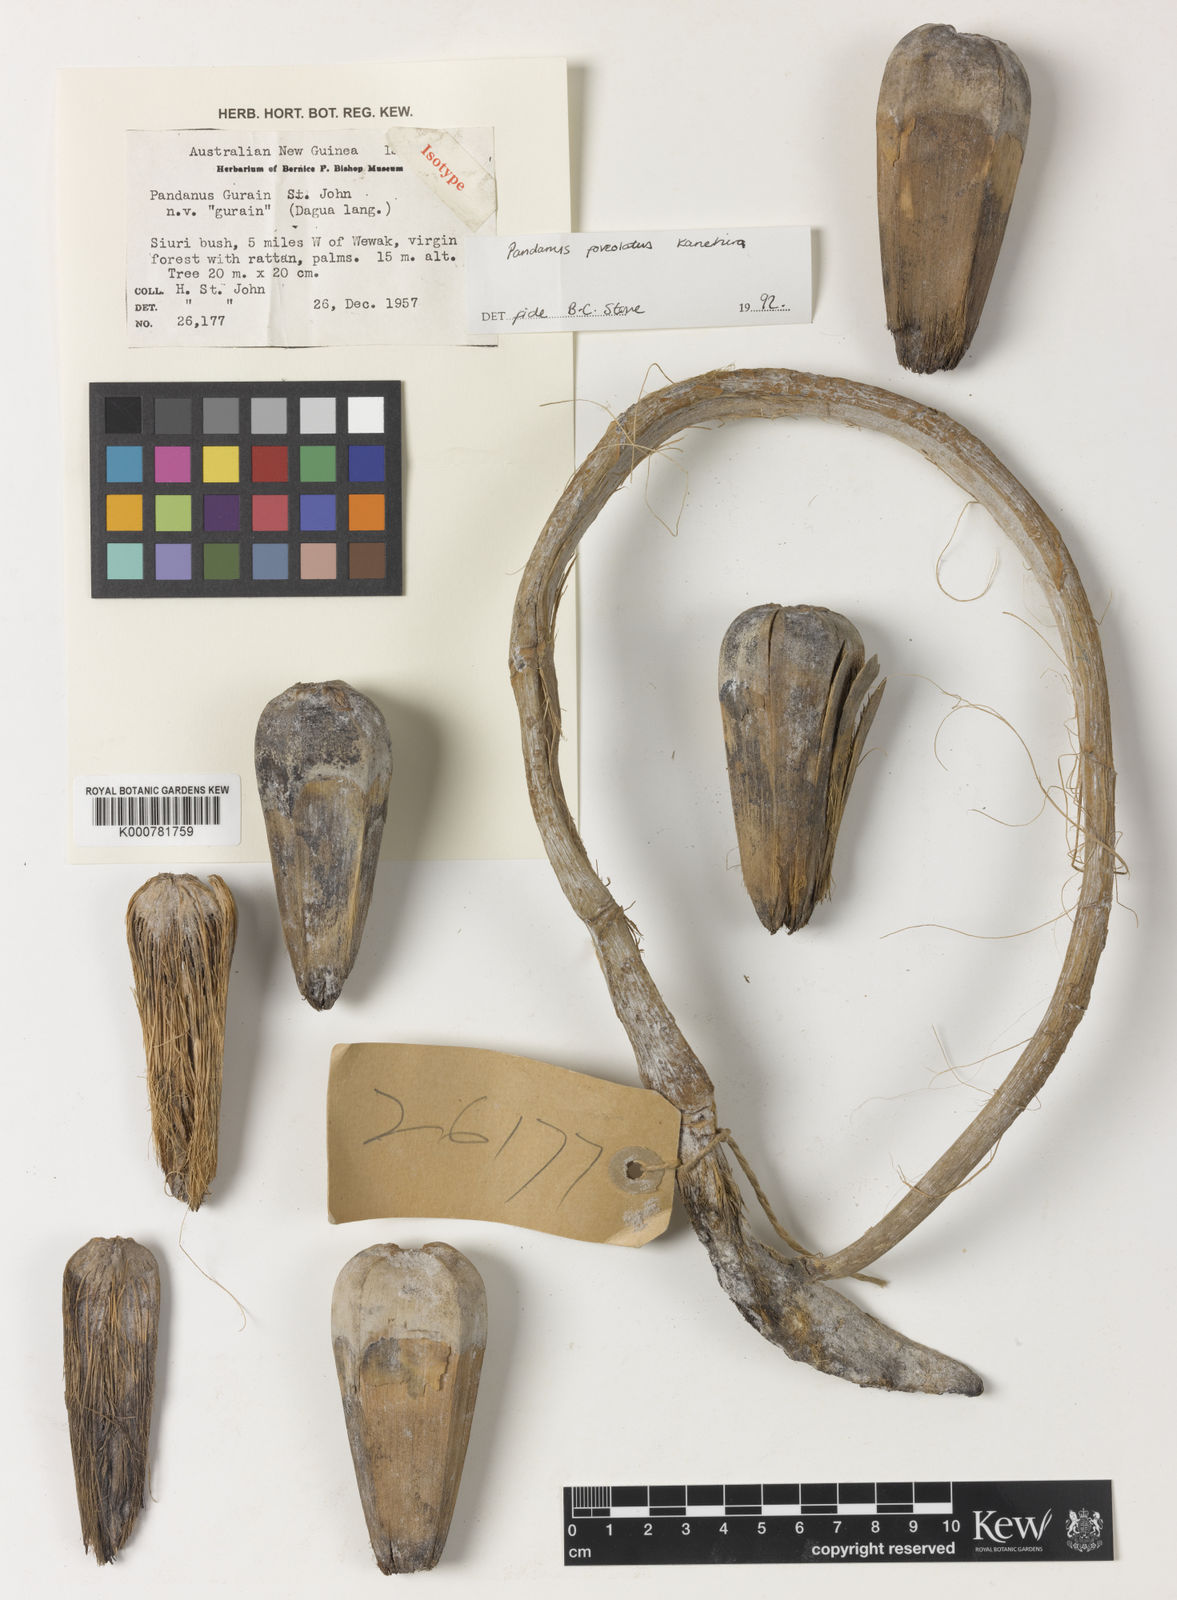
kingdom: Plantae
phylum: Tracheophyta
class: Liliopsida
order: Pandanales
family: Pandanaceae
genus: Pandanus
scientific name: Pandanus foveolatus
